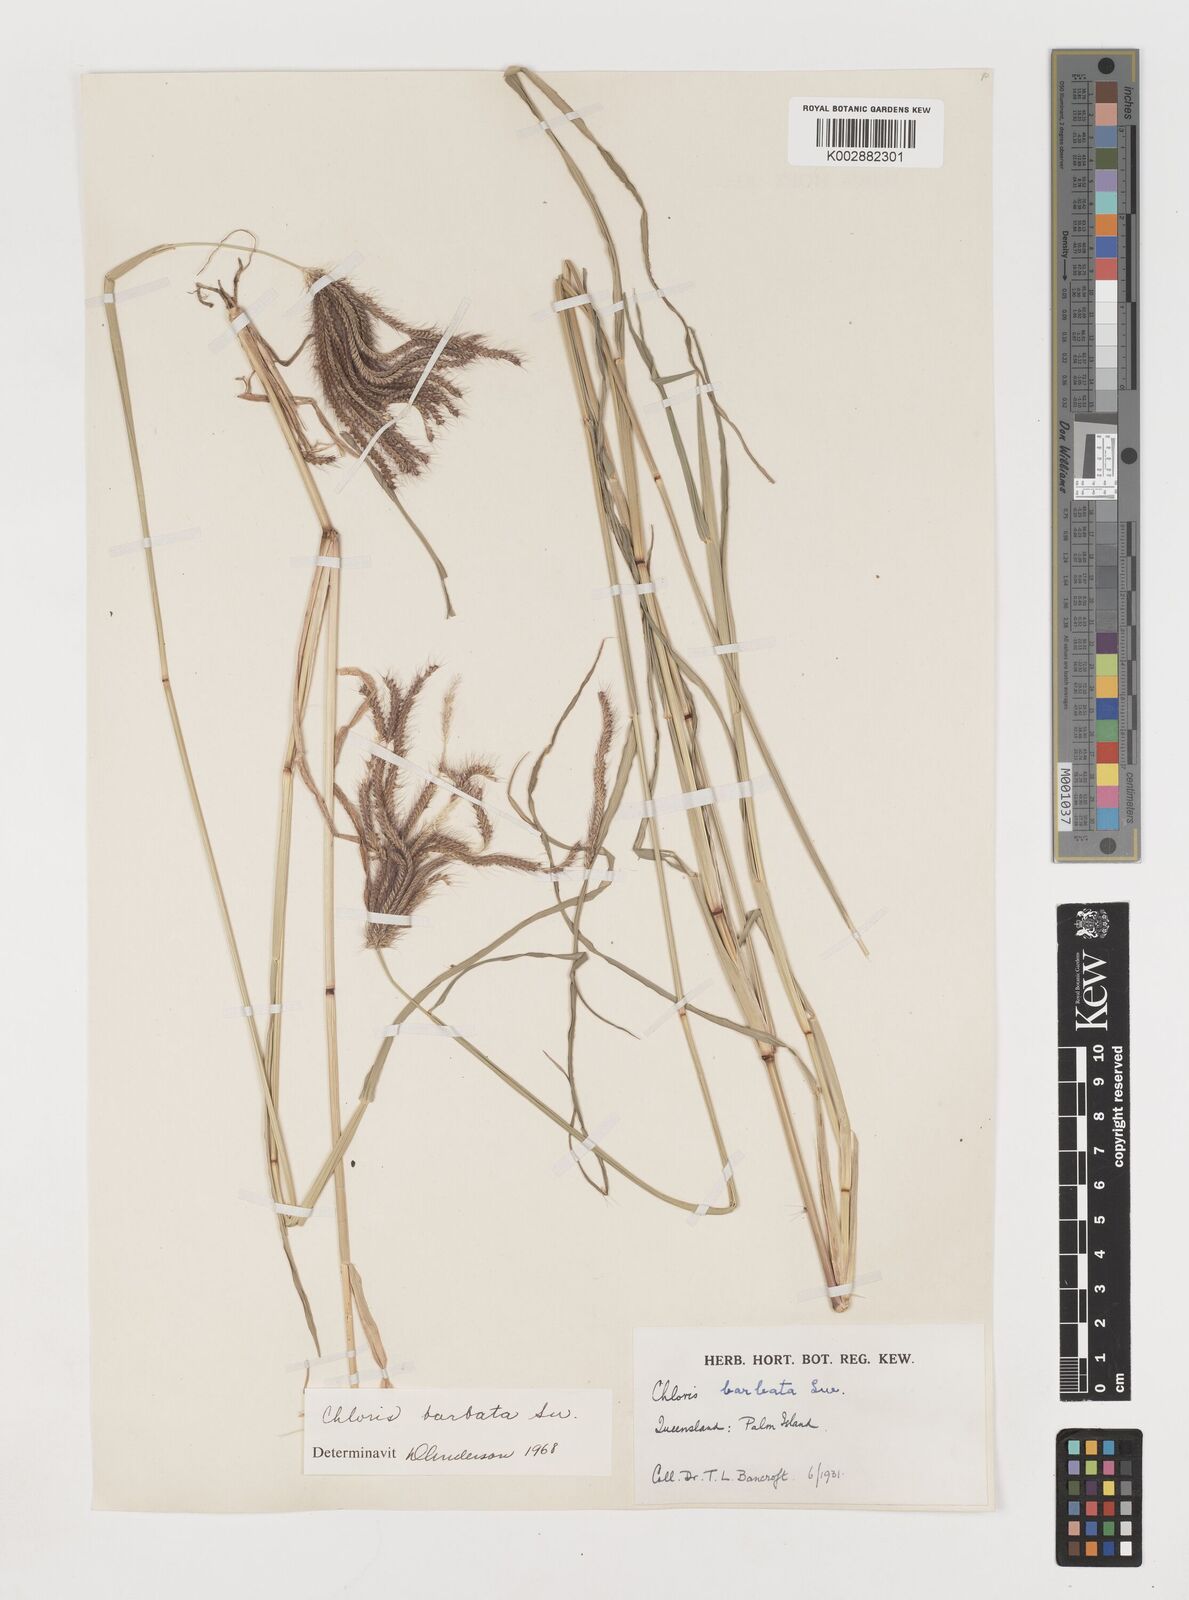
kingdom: Plantae
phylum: Tracheophyta
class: Liliopsida
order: Poales
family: Poaceae
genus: Chloris
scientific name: Chloris barbata
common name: Swollen fingergrass
